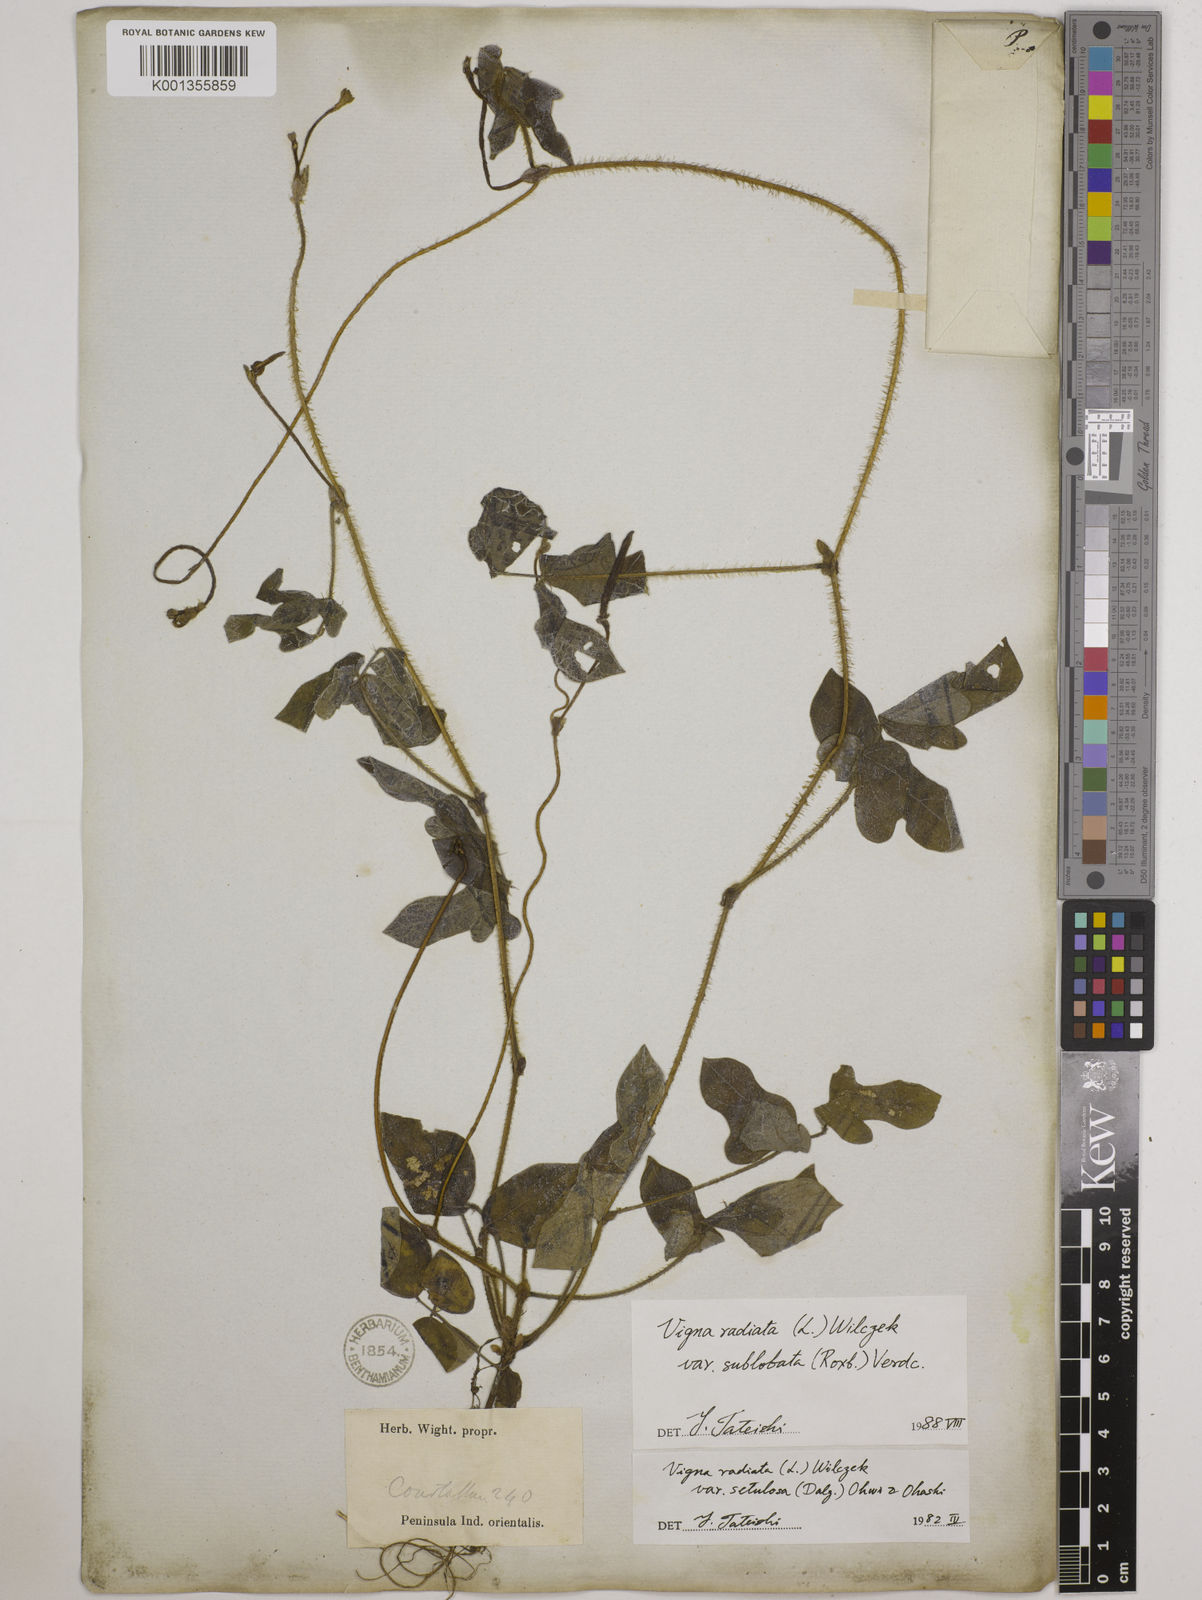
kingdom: Plantae
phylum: Tracheophyta
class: Magnoliopsida
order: Fabales
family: Fabaceae
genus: Vigna
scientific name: Vigna radiata
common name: Mung-bean
